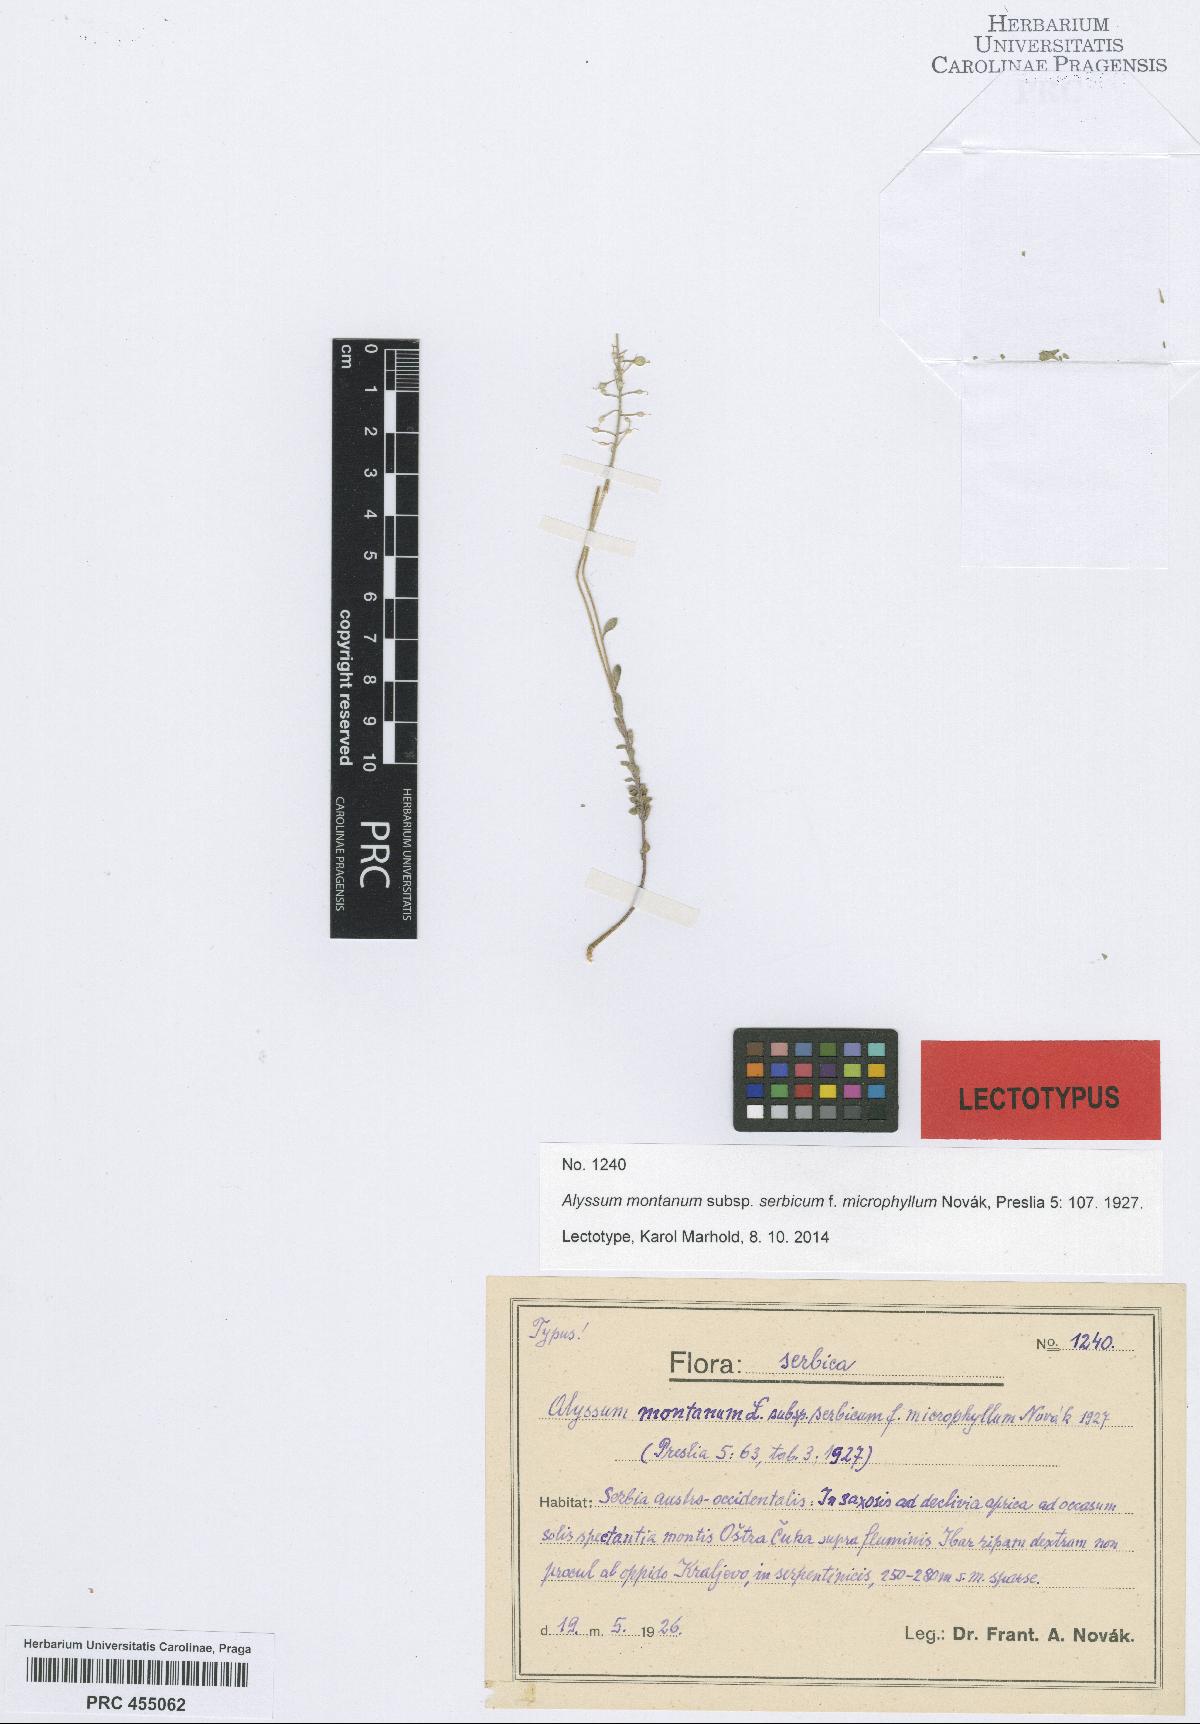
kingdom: Plantae
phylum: Tracheophyta
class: Magnoliopsida
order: Brassicales
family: Brassicaceae
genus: Alyssum
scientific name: Alyssum montanum
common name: Mountain alison
